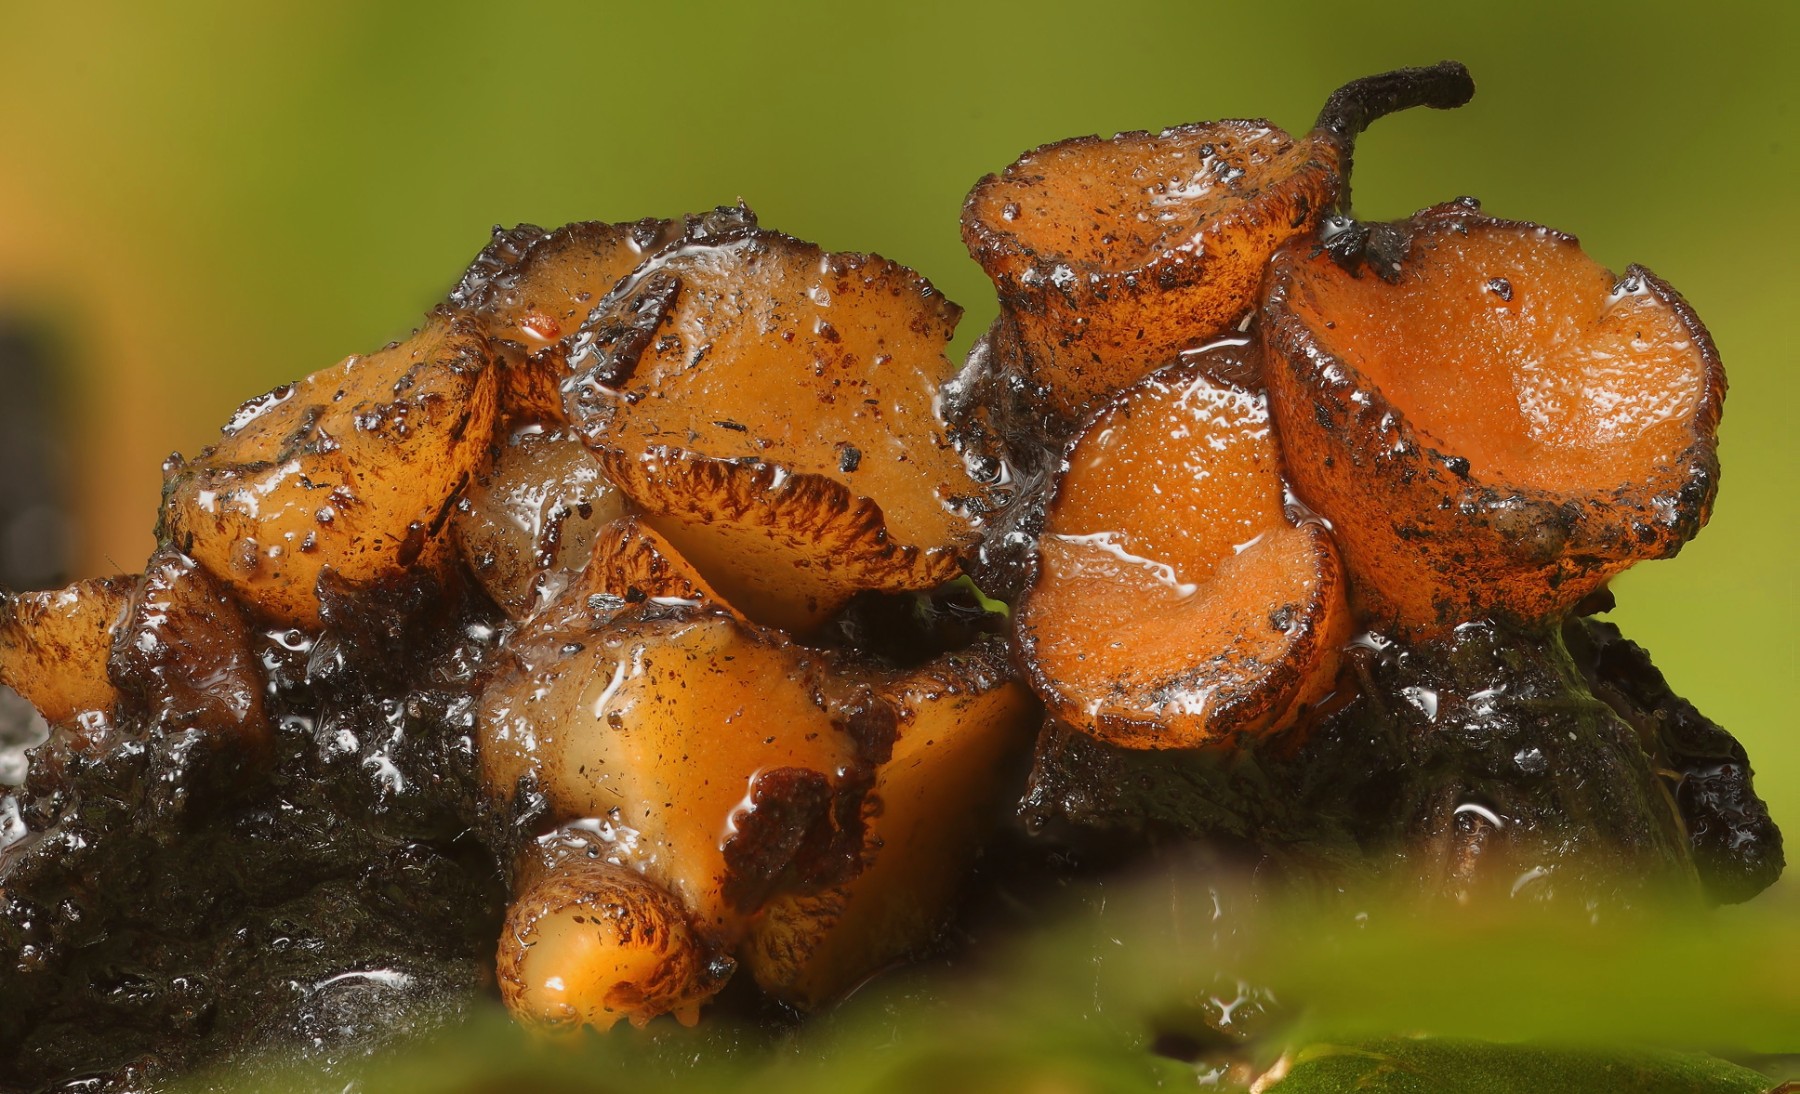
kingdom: Fungi
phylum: Ascomycota
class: Pezizomycetes
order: Pezizales
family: Pyronemataceae
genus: Anthracobia
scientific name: Anthracobia melaloma
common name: flamme-ildbæger
